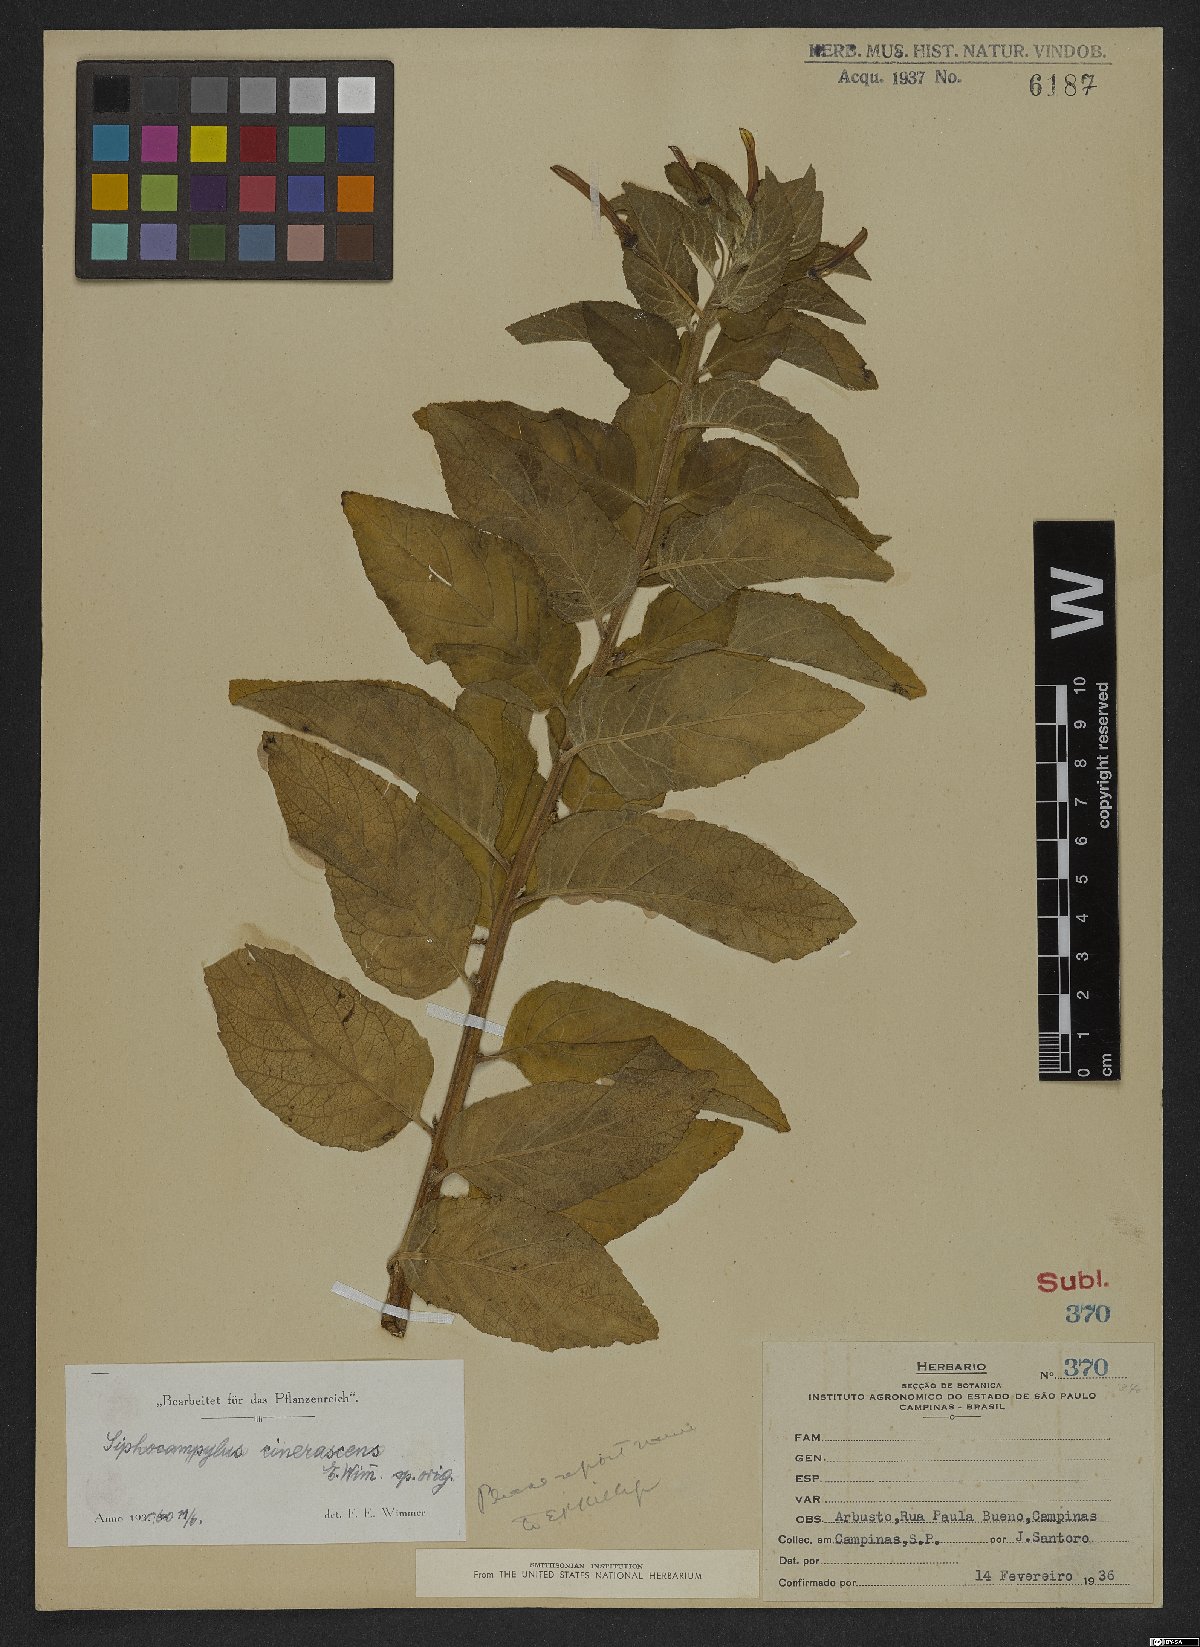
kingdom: Plantae
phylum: Tracheophyta
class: Magnoliopsida
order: Asterales
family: Campanulaceae
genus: Siphocampylus
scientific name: Siphocampylus macropodus
